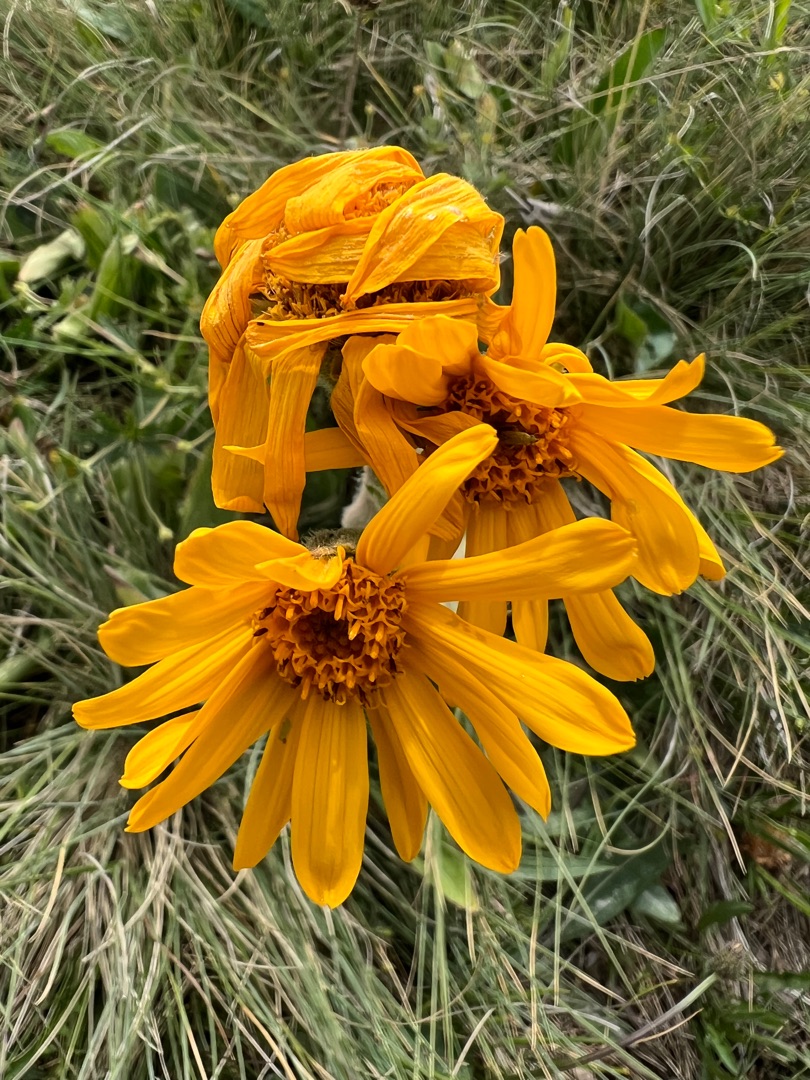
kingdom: Plantae
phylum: Tracheophyta
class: Magnoliopsida
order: Asterales
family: Asteraceae
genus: Arnica
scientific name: Arnica montana
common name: Guldblomme
